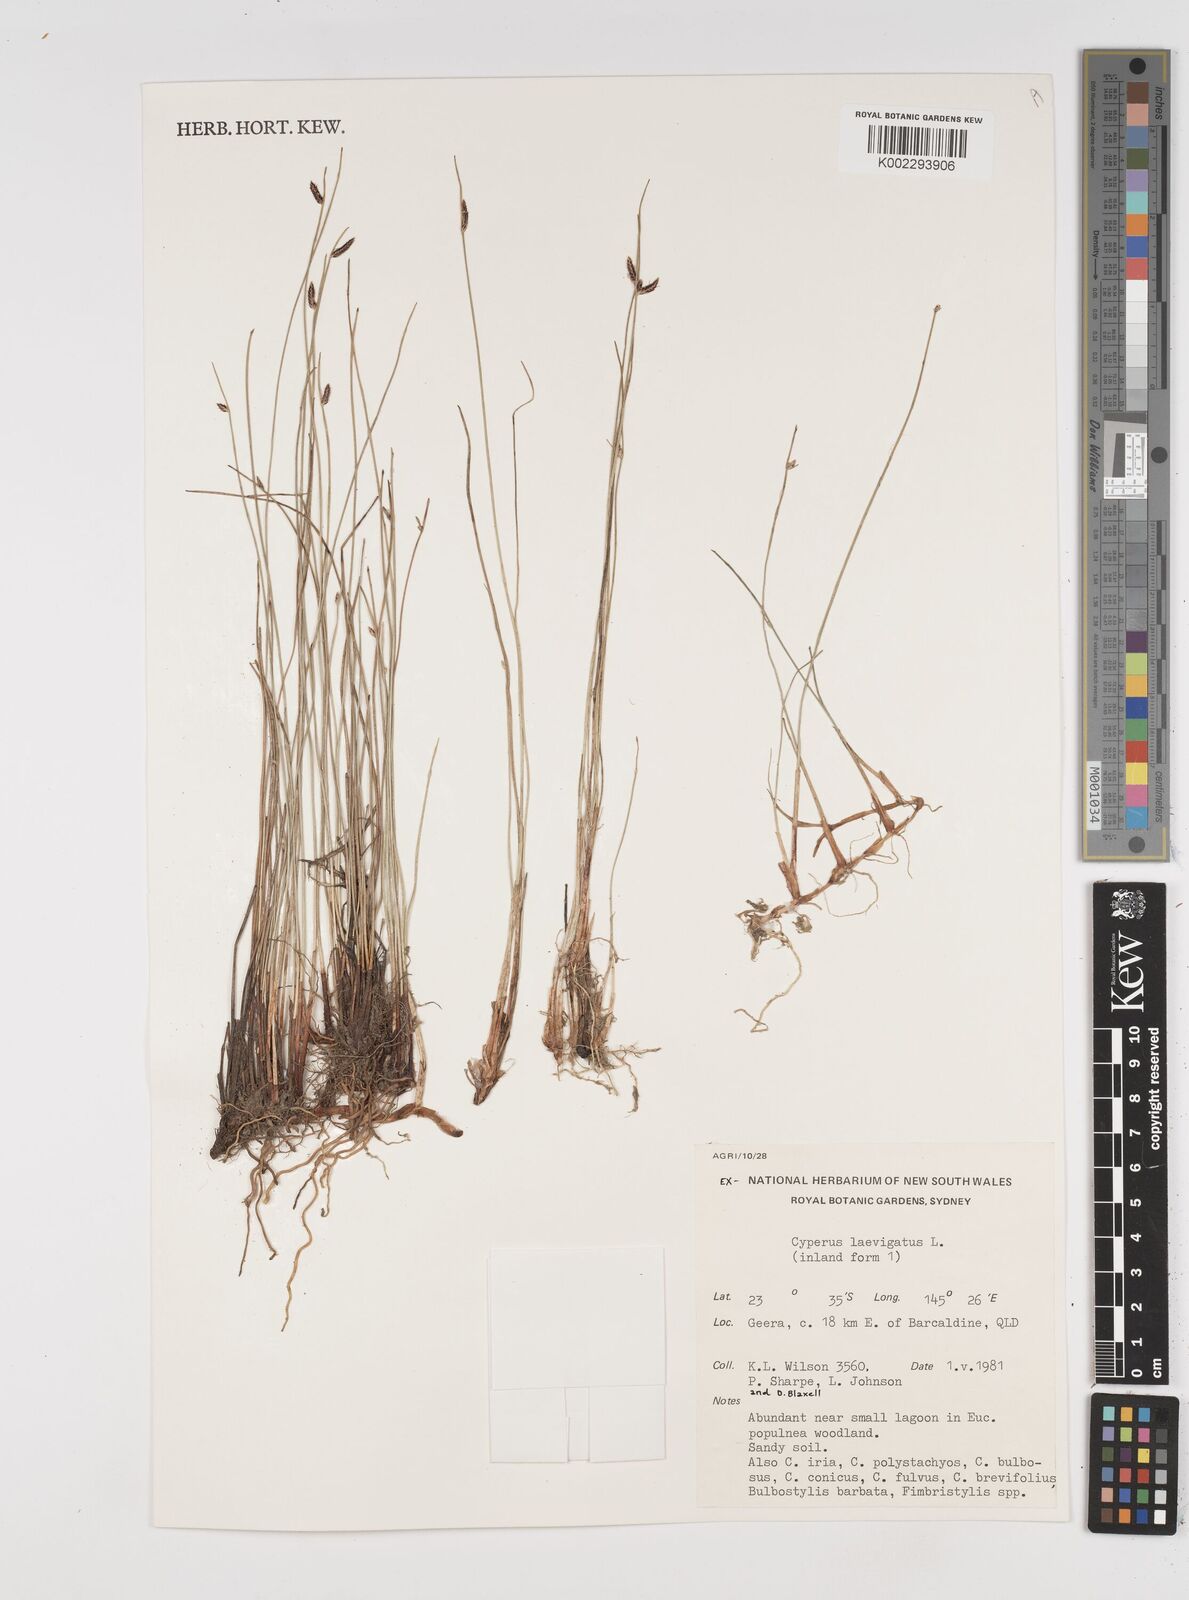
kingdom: Plantae
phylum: Tracheophyta
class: Liliopsida
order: Poales
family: Cyperaceae
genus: Cyperus
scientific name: Cyperus laevigatus
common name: Smooth flat sedge
